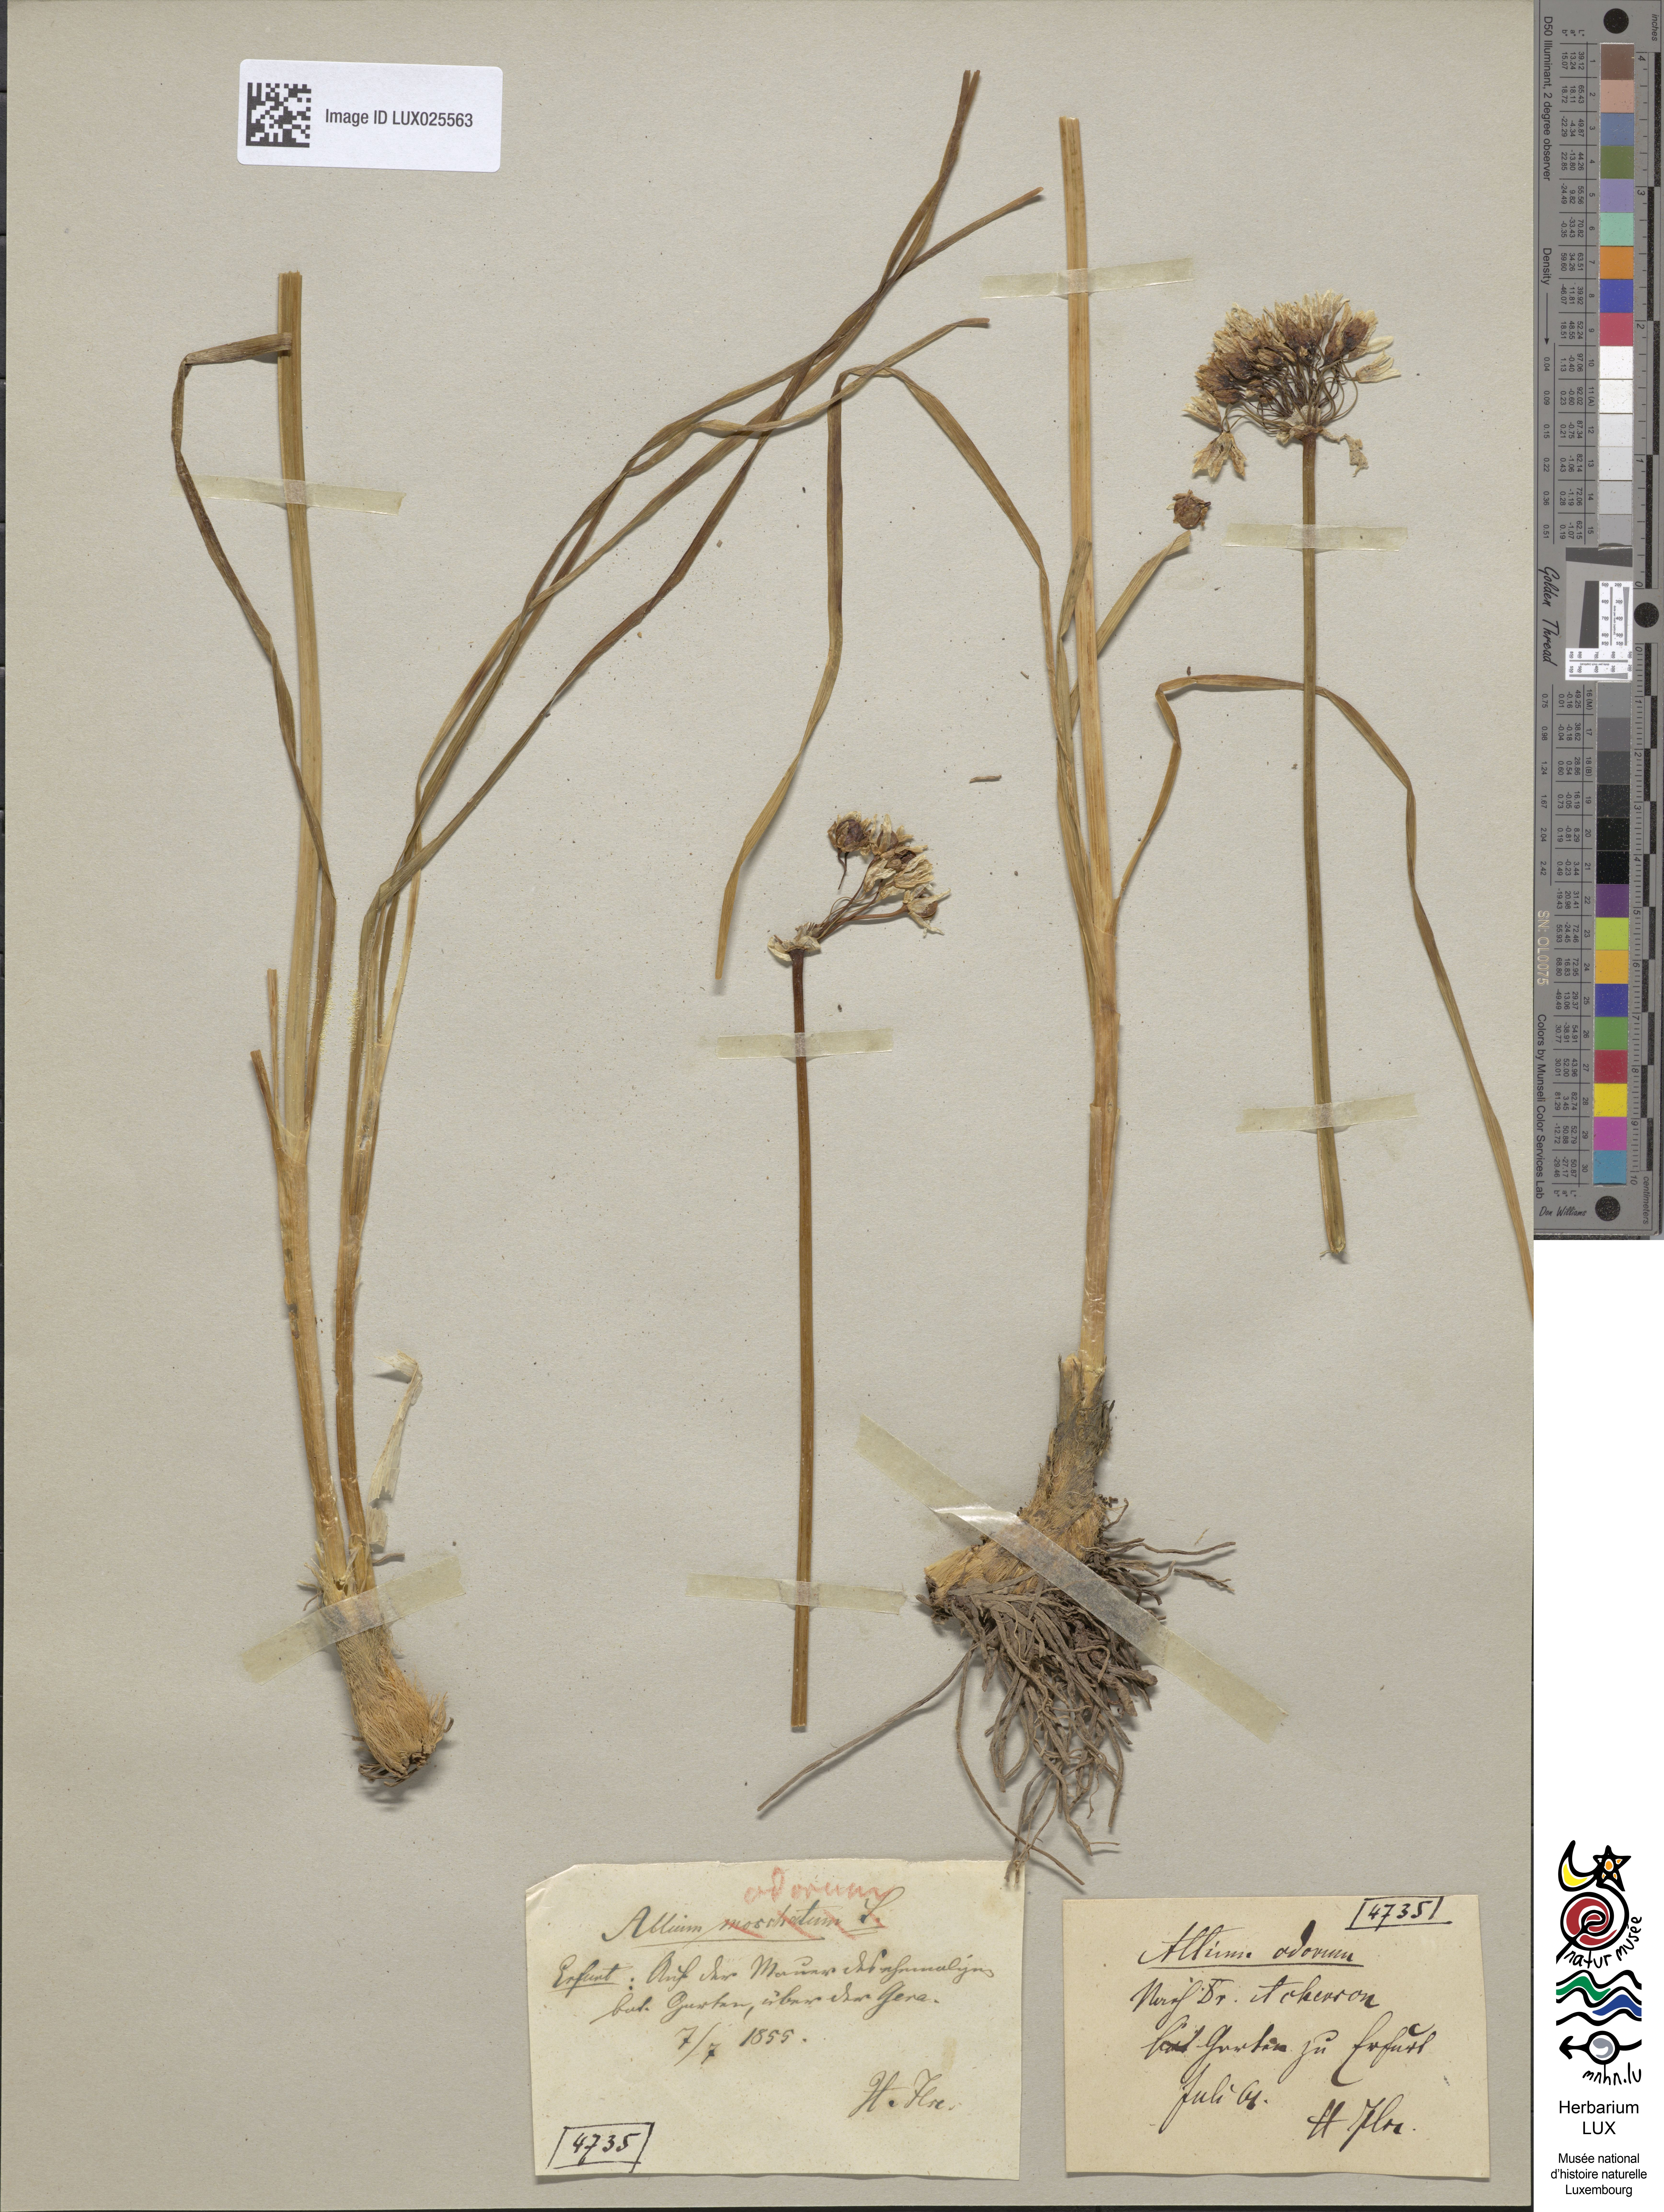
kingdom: Plantae
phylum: Tracheophyta
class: Liliopsida
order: Asparagales
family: Amaryllidaceae
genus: Allium
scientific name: Allium ramosum
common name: Fragrant garlic
